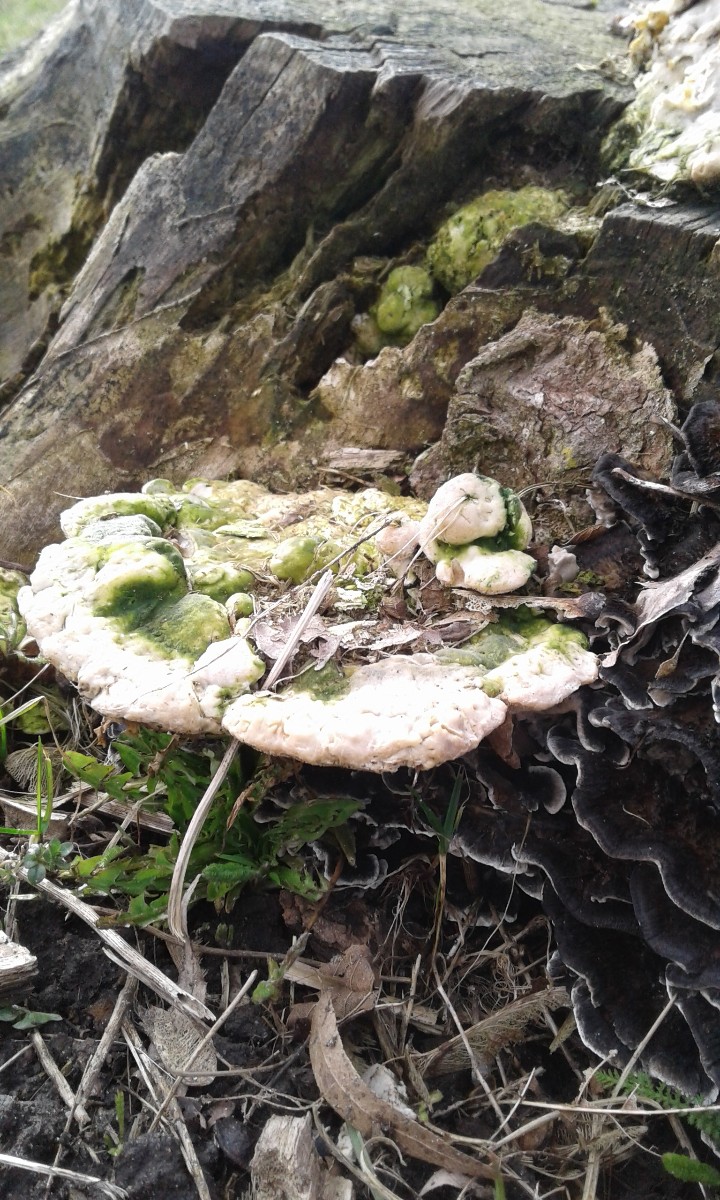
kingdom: Fungi
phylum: Basidiomycota
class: Agaricomycetes
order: Polyporales
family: Polyporaceae
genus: Trametes
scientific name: Trametes gibbosa
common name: puklet læderporesvamp
